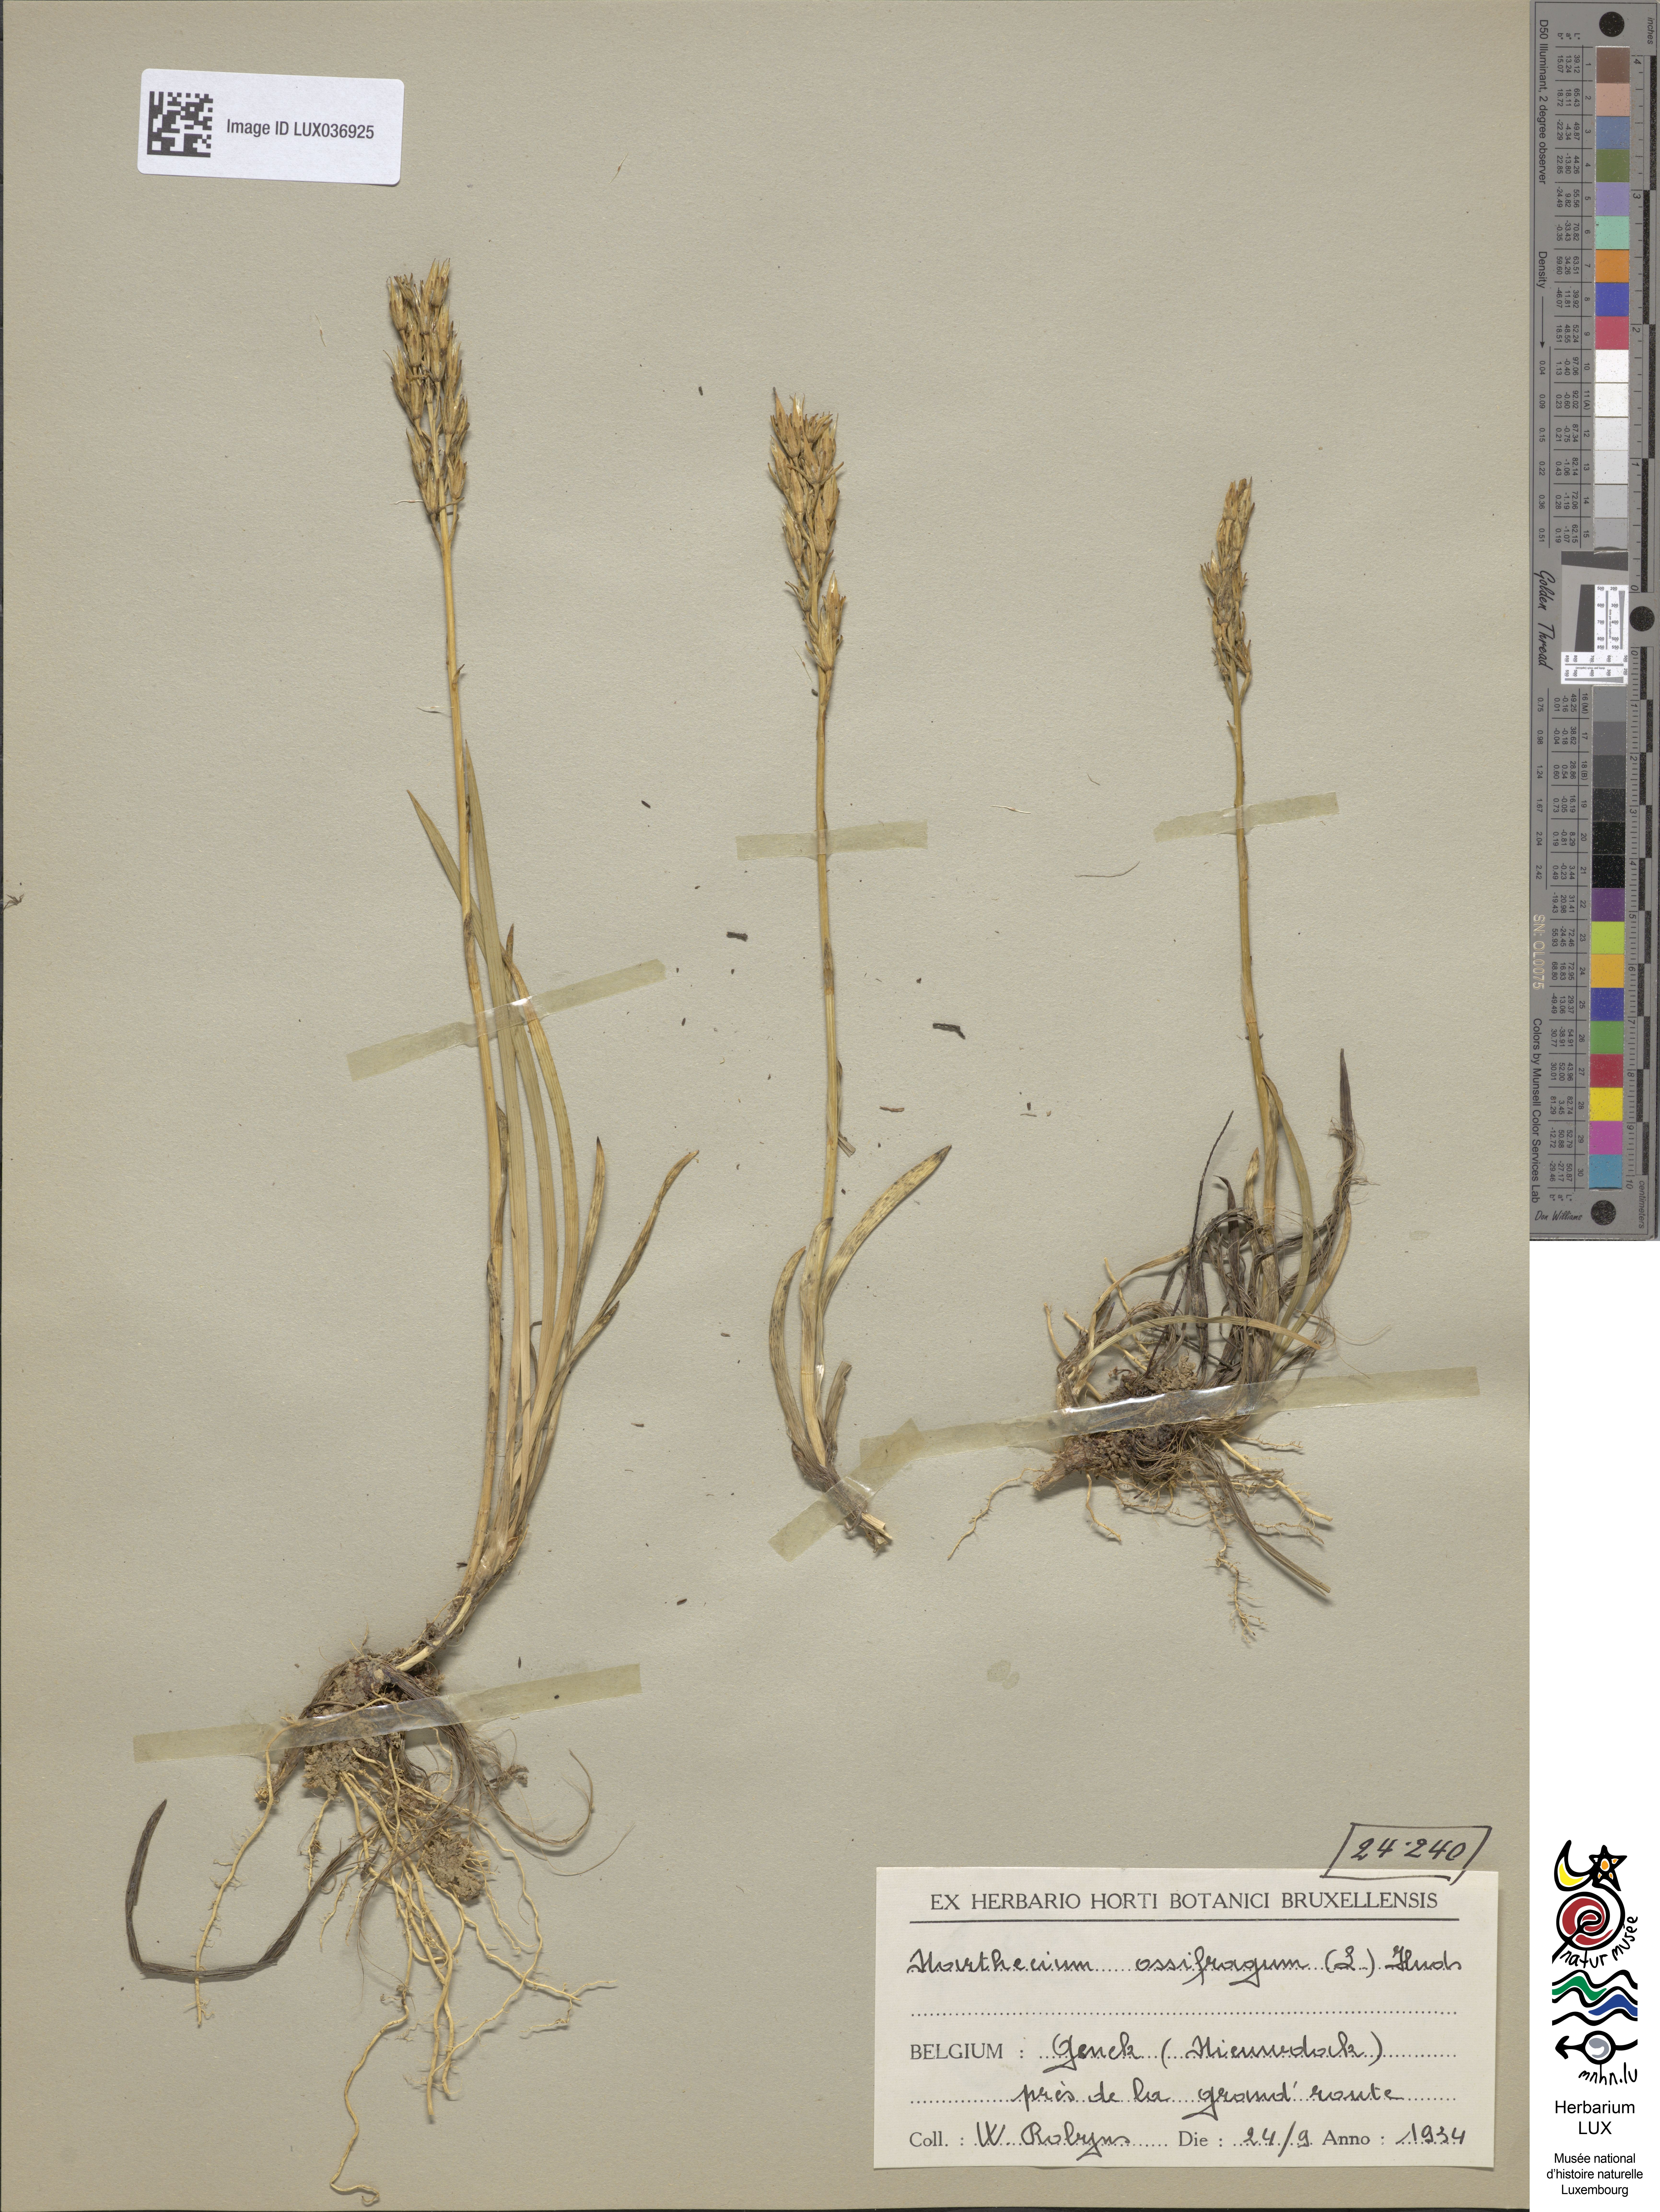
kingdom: Plantae
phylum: Tracheophyta
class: Liliopsida
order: Dioscoreales
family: Nartheciaceae
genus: Narthecium
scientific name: Narthecium ossifragum
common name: Bog asphodel
